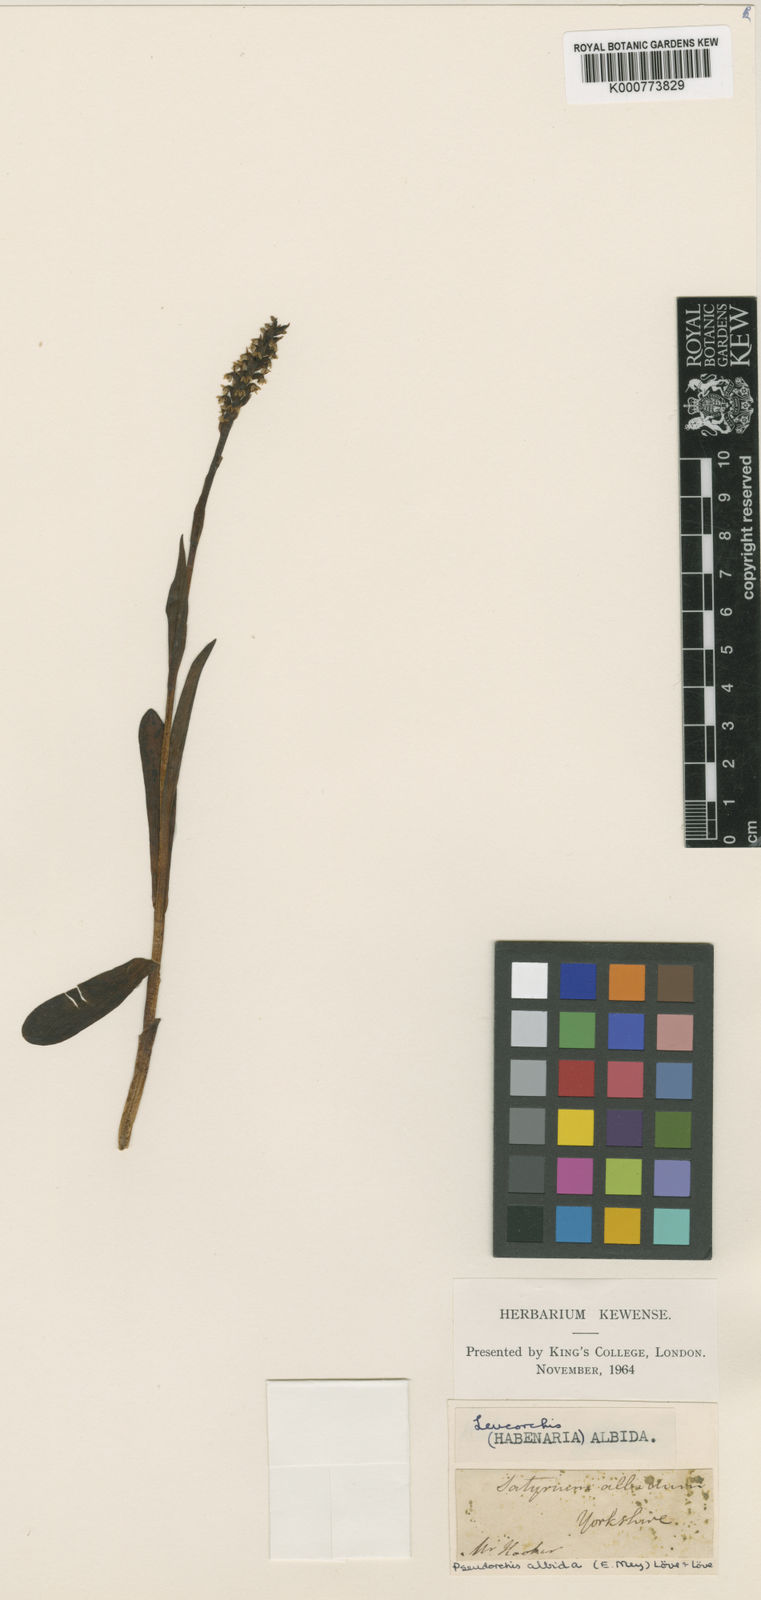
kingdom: Plantae
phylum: Tracheophyta
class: Liliopsida
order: Asparagales
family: Orchidaceae
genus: Pseudorchis
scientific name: Pseudorchis
